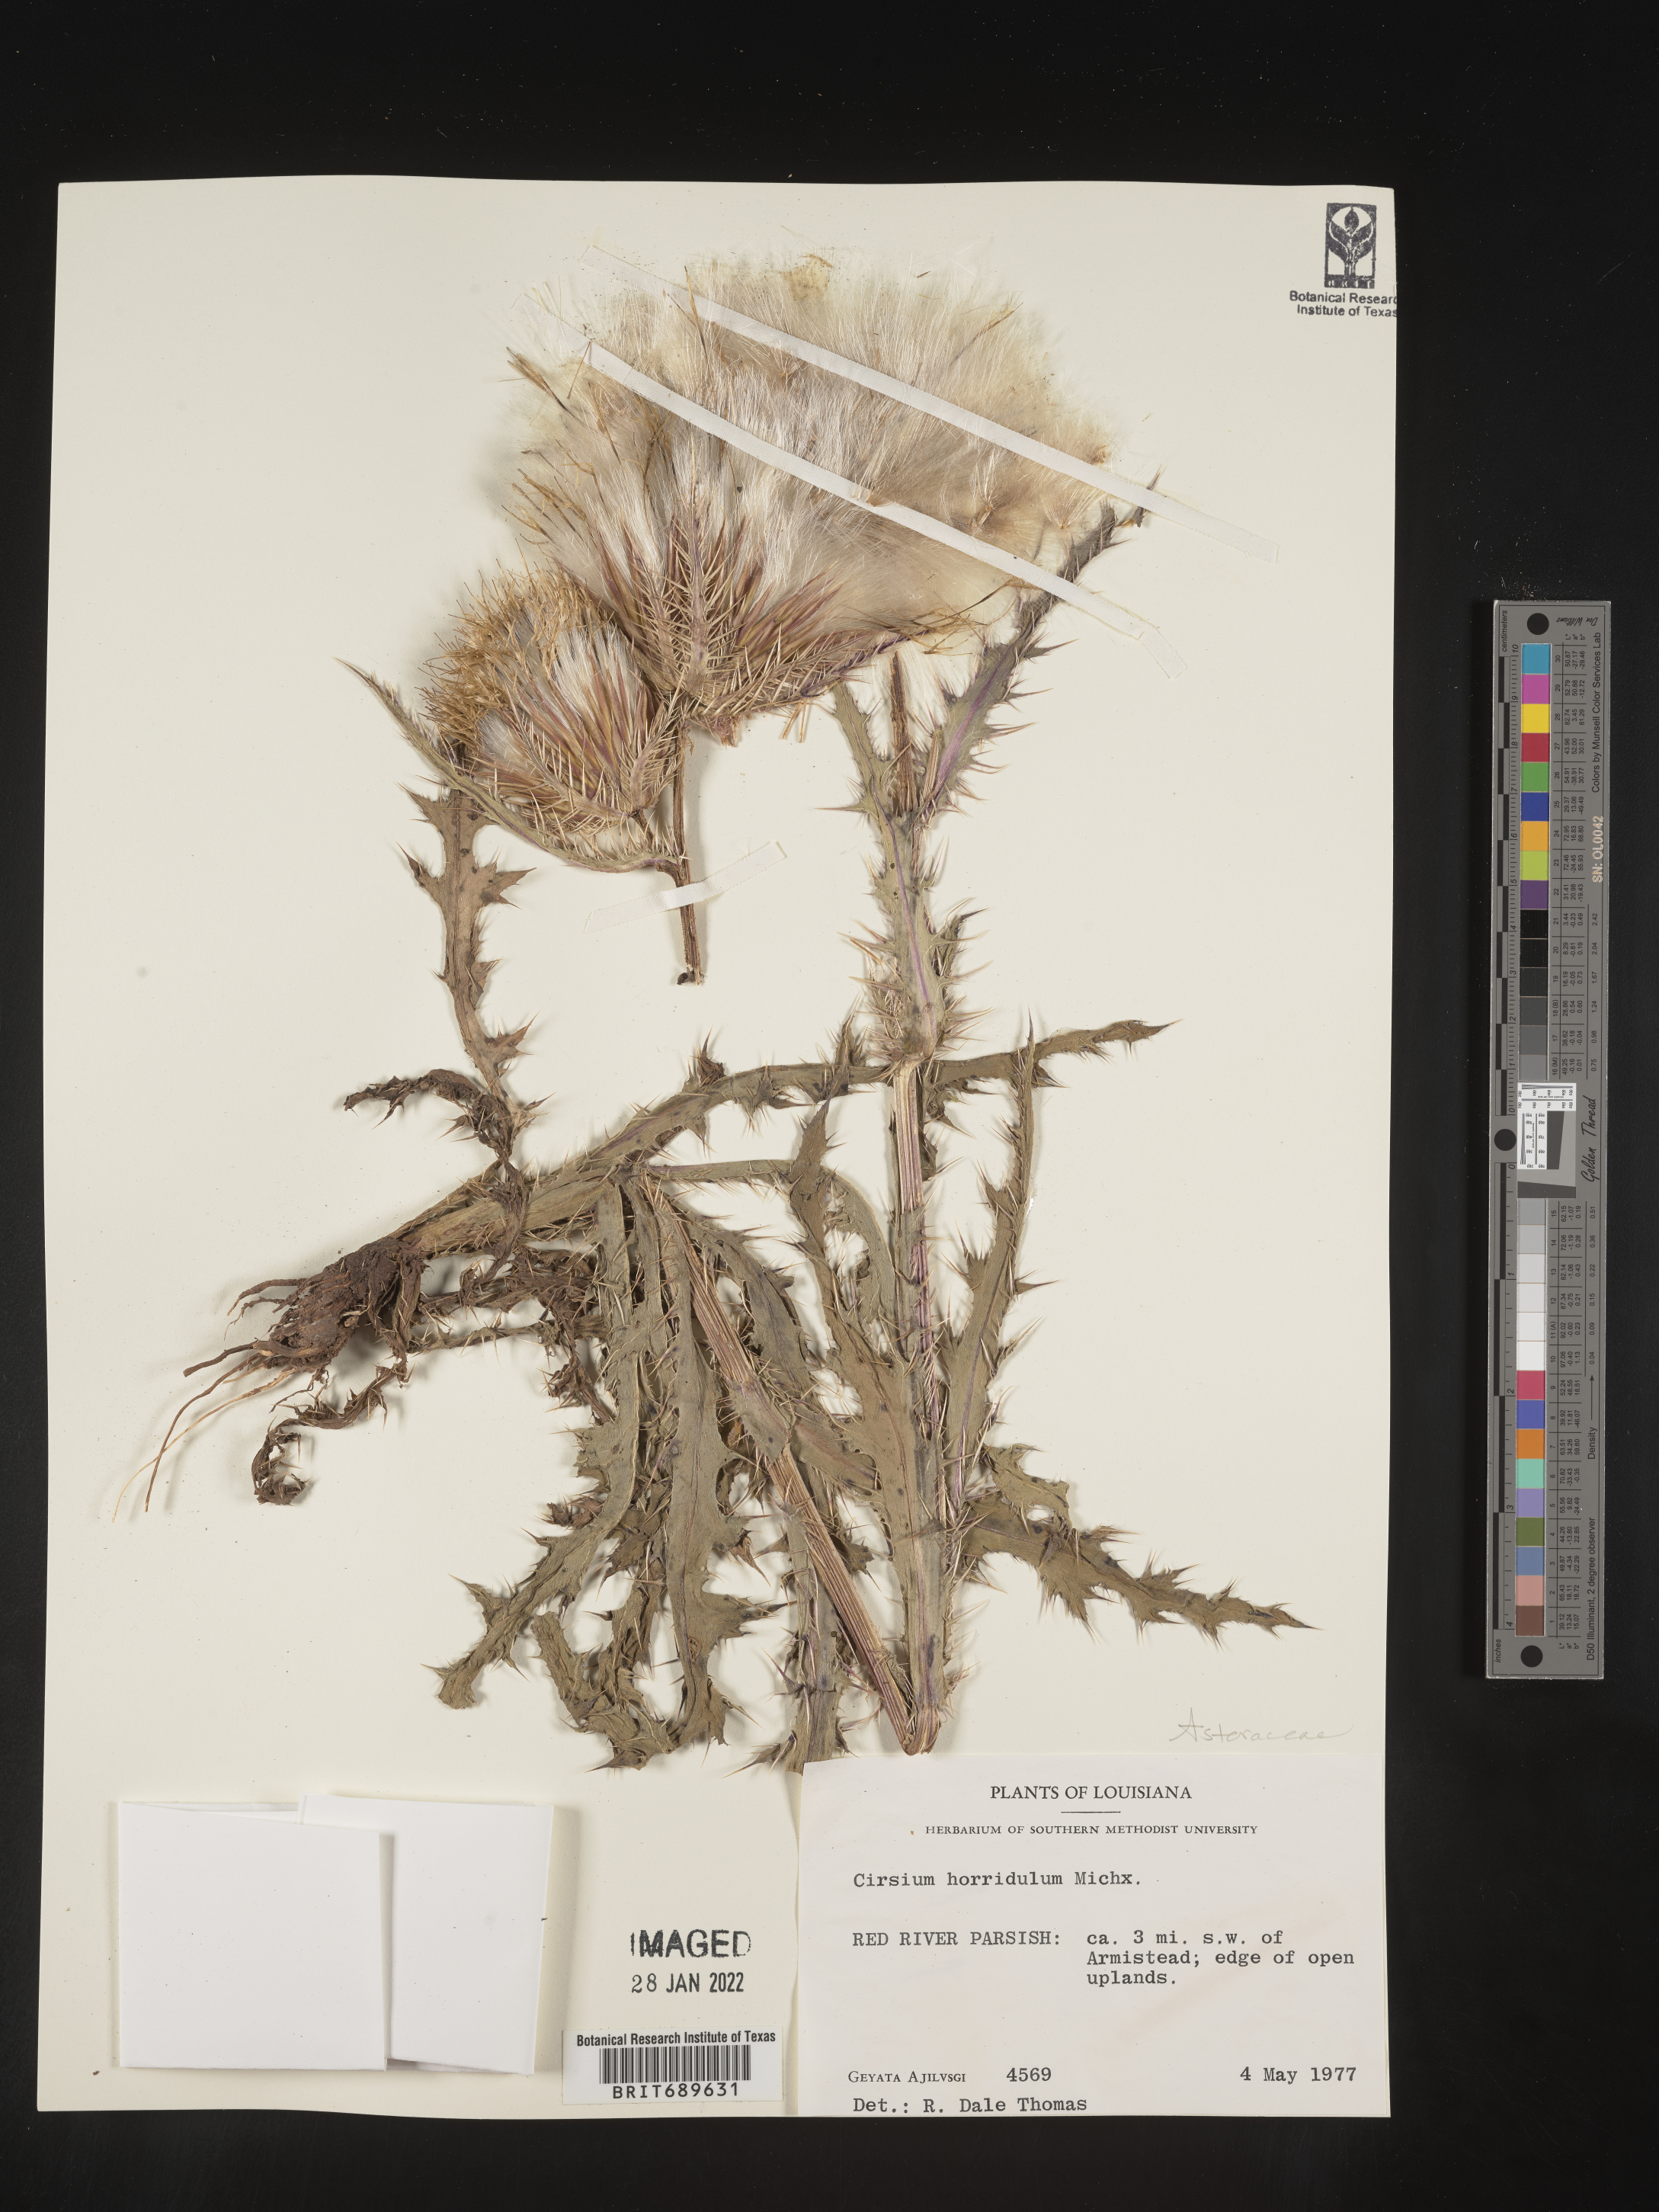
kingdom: Plantae
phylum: Tracheophyta
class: Magnoliopsida
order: Asterales
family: Asteraceae
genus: Cirsium
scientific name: Cirsium horridulum
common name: Bristly thistle
